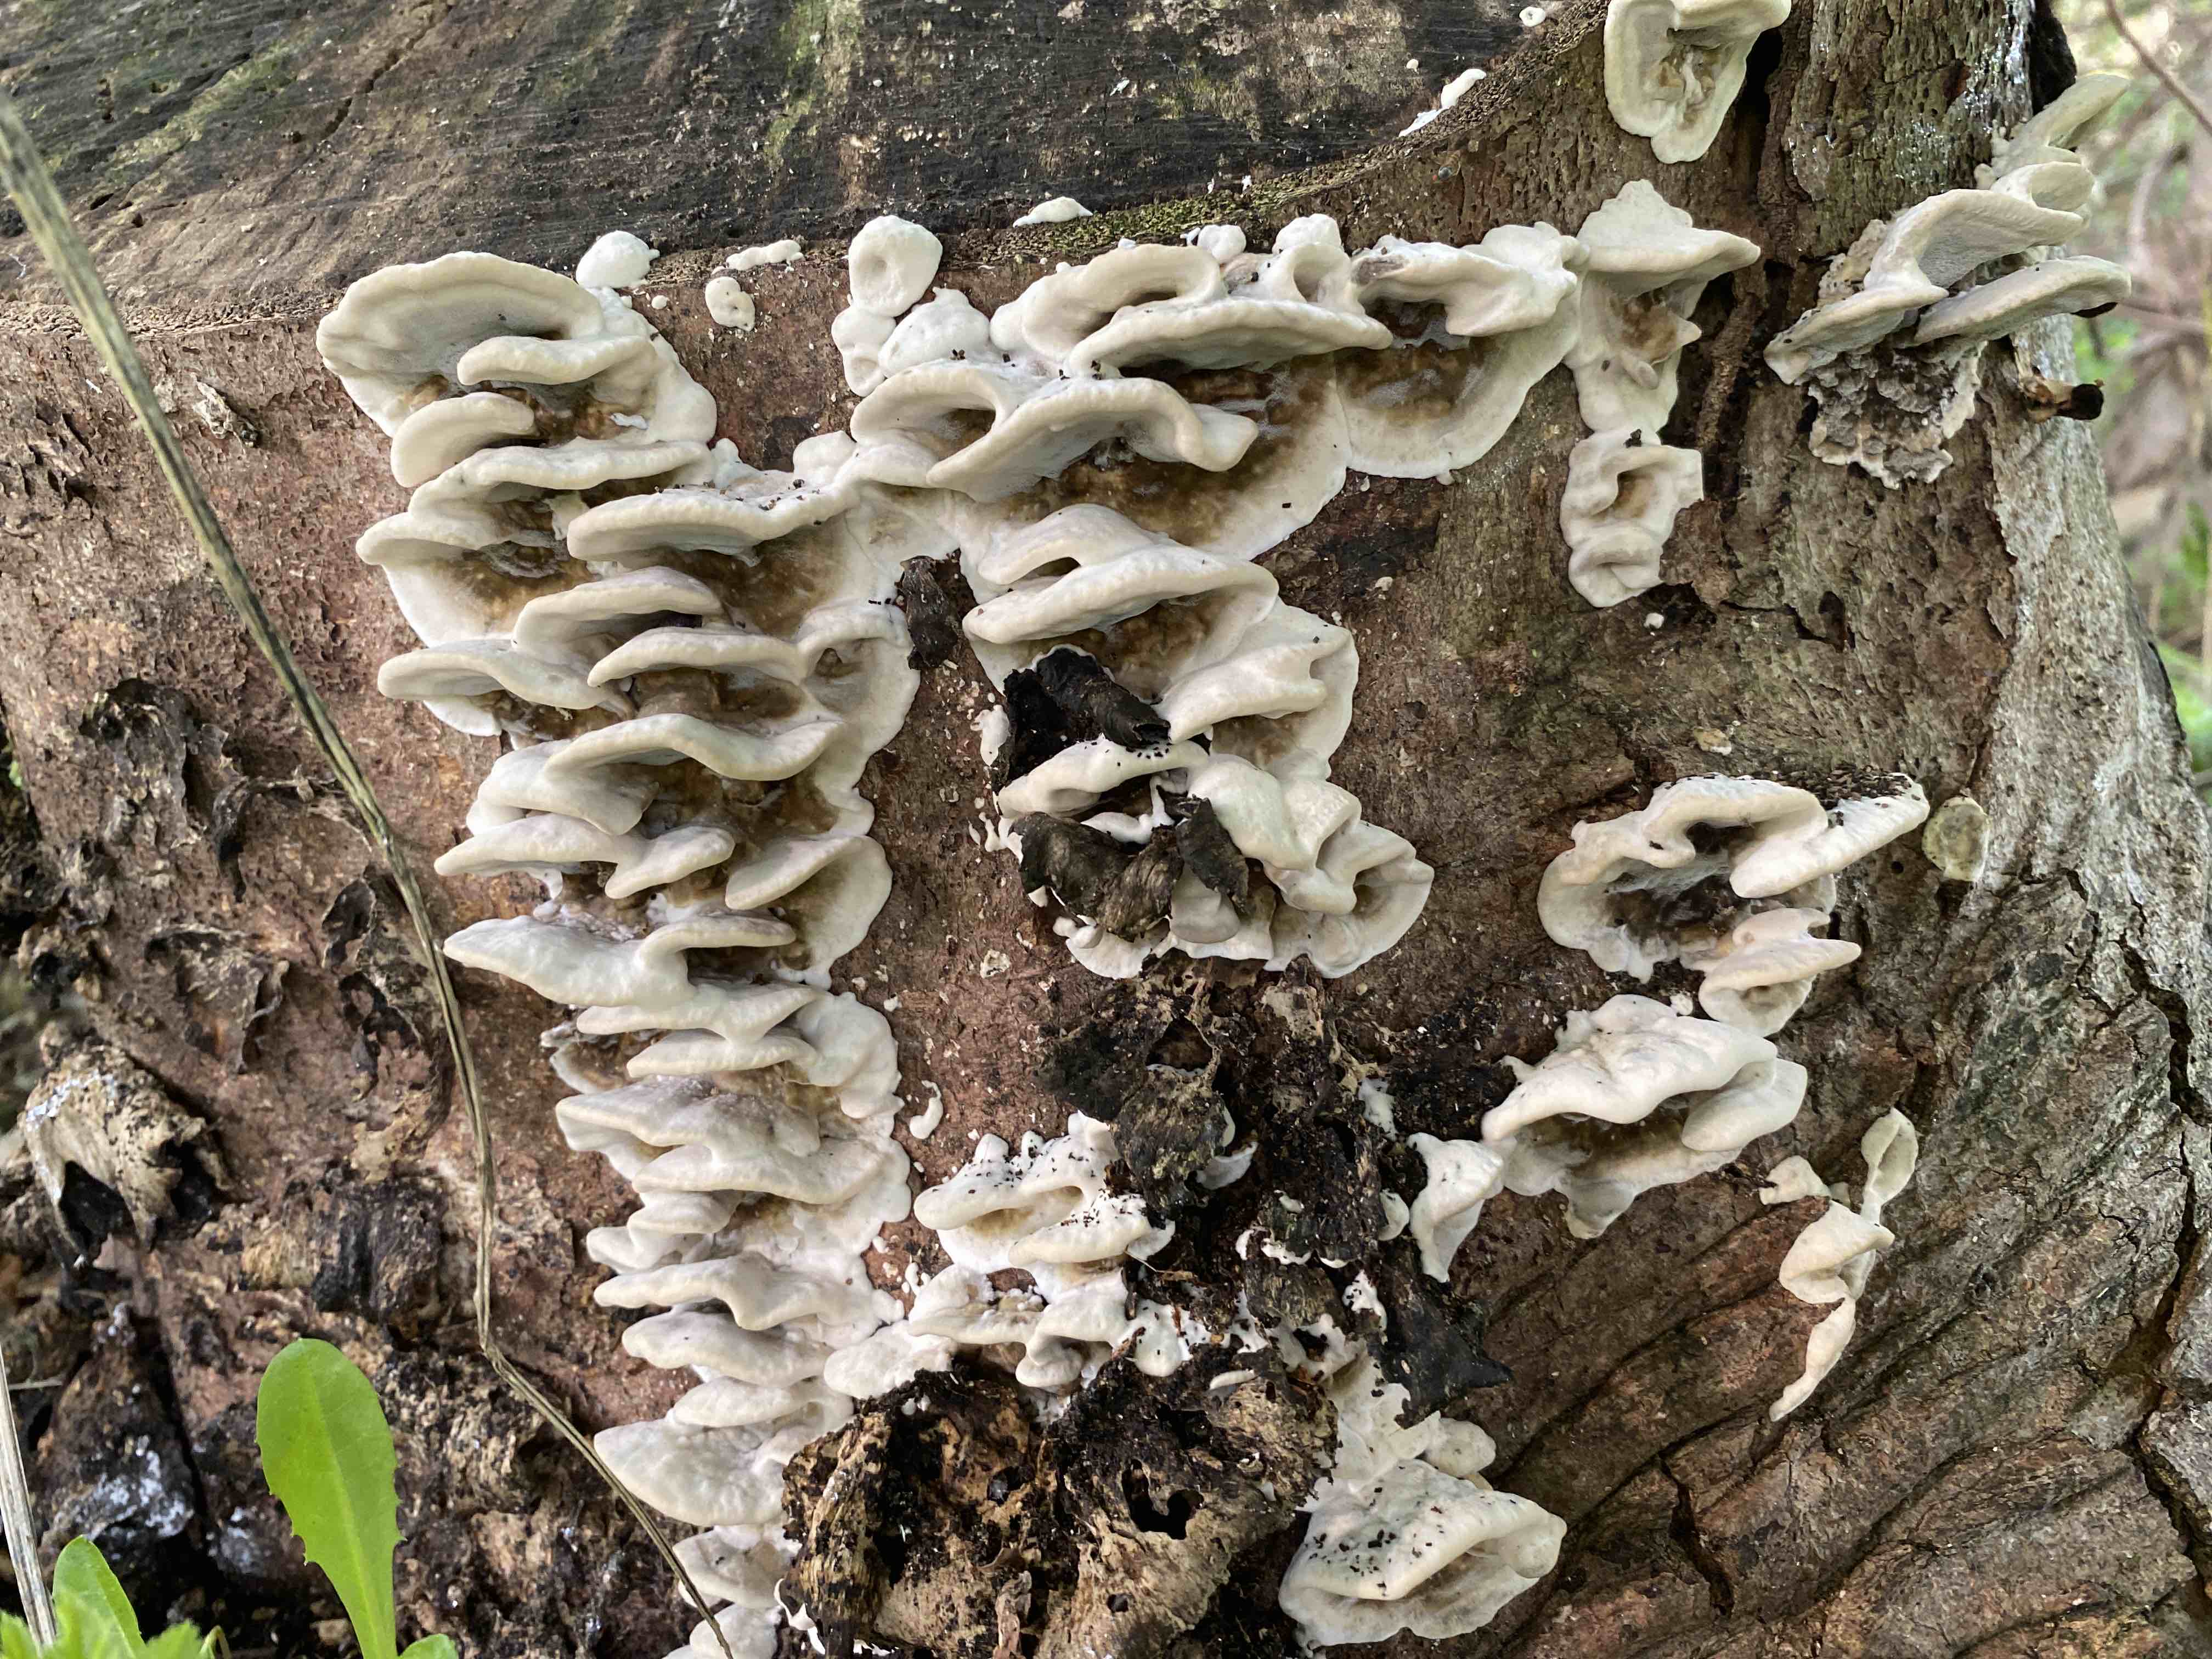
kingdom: Fungi
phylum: Basidiomycota
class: Agaricomycetes
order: Polyporales
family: Phanerochaetaceae
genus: Bjerkandera
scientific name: Bjerkandera adusta
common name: sveden sodporesvamp
